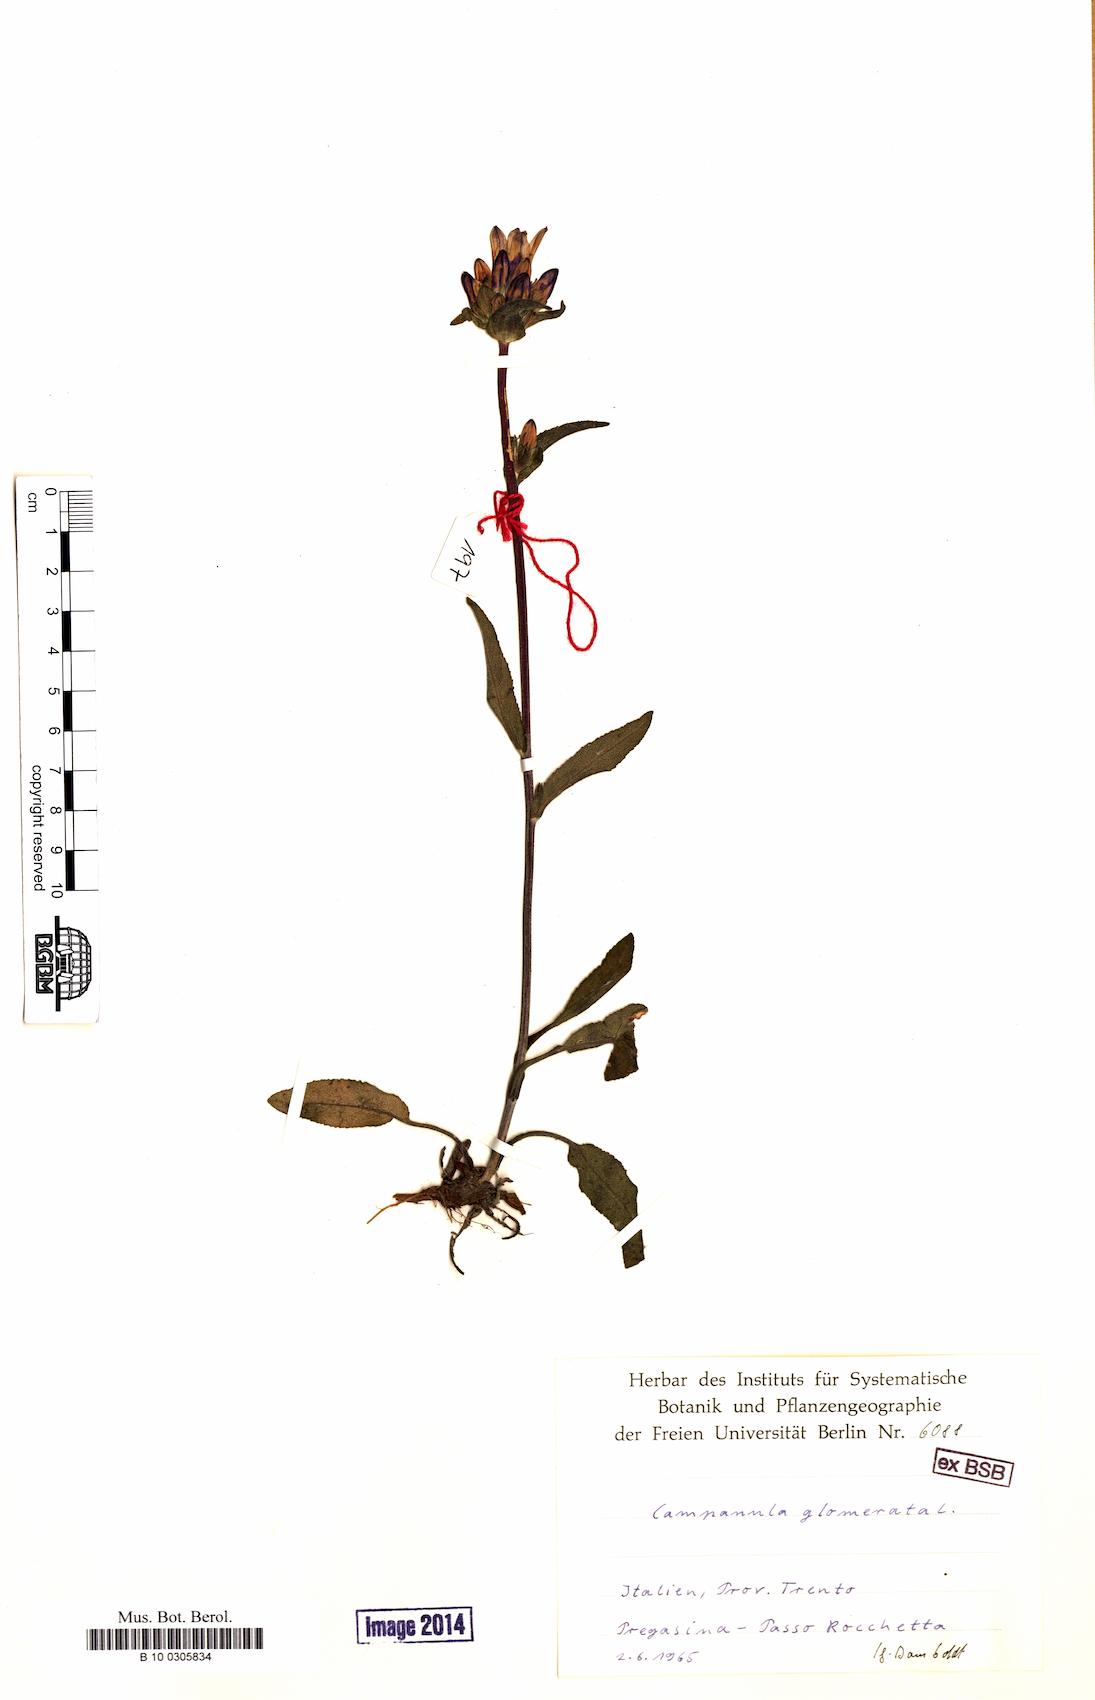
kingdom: Plantae
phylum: Tracheophyta
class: Magnoliopsida
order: Asterales
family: Campanulaceae
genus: Campanula
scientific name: Campanula glomerata
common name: Clustered bellflower
